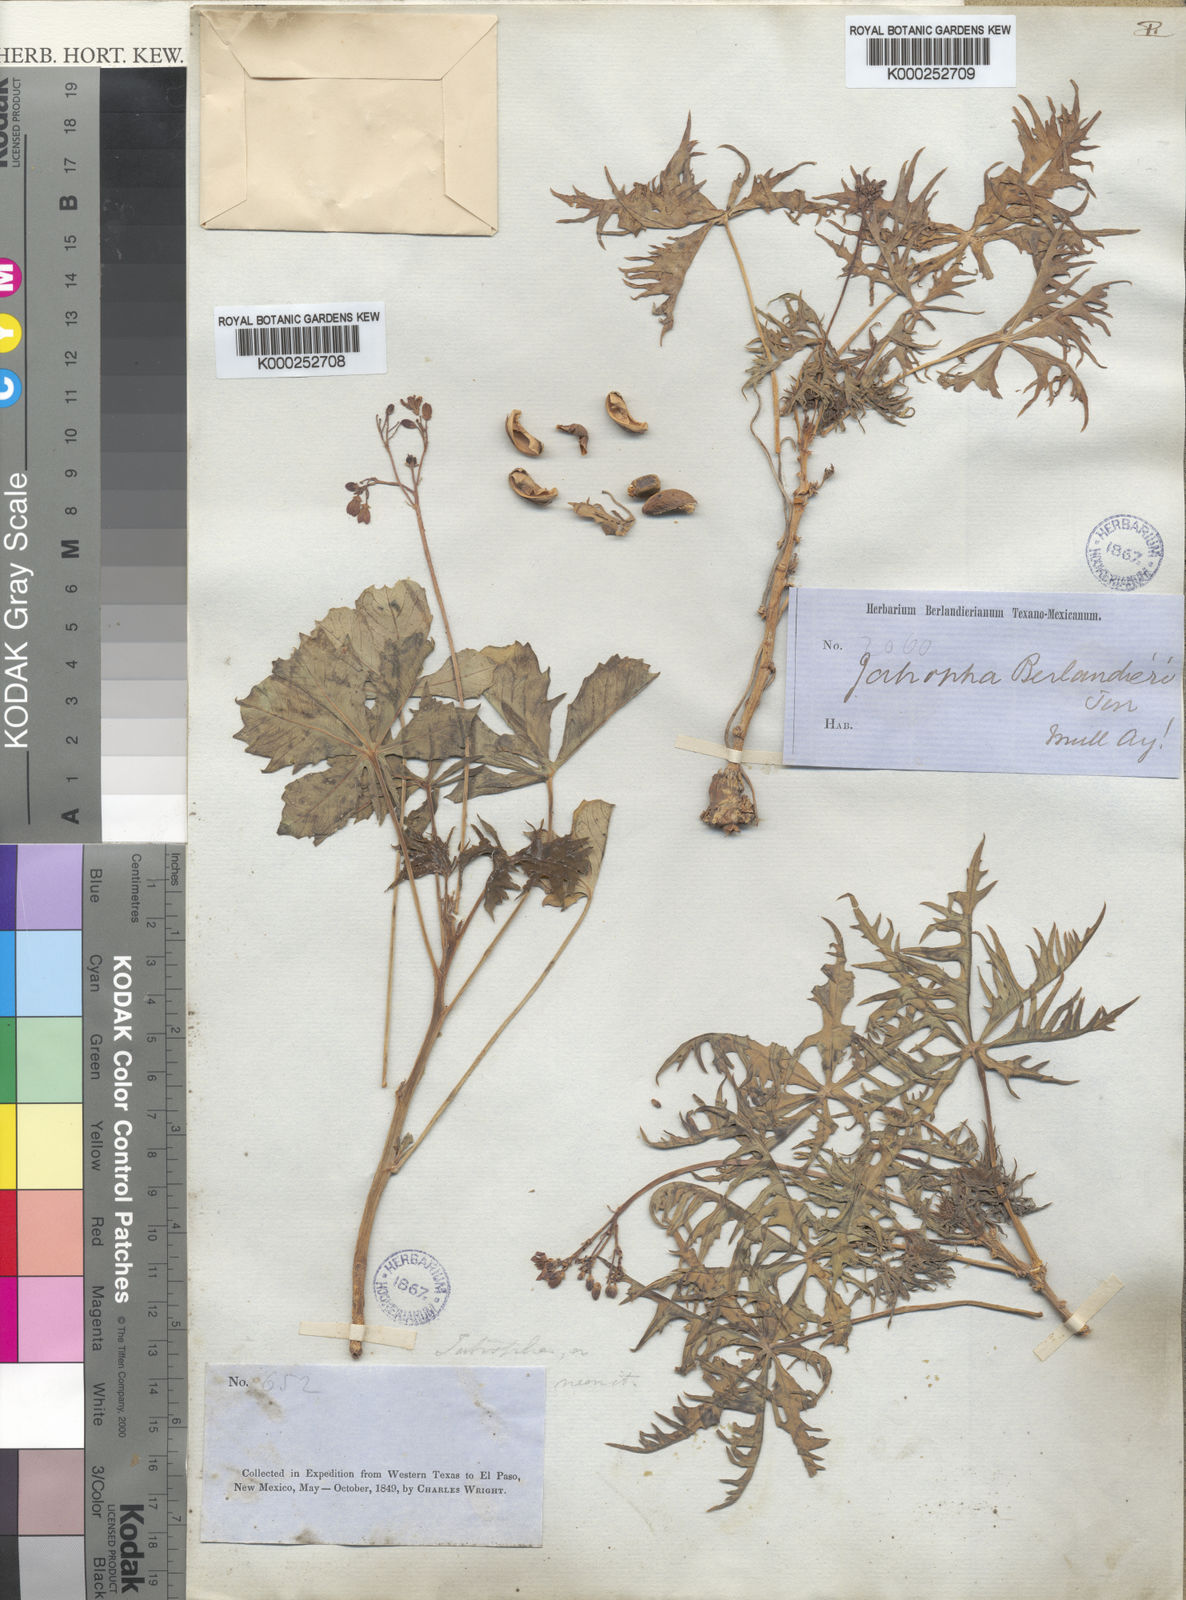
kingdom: Plantae
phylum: Tracheophyta
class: Magnoliopsida
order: Malpighiales
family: Euphorbiaceae
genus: Jatropha
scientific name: Jatropha cathartica
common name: Berlander's nettlespurge
